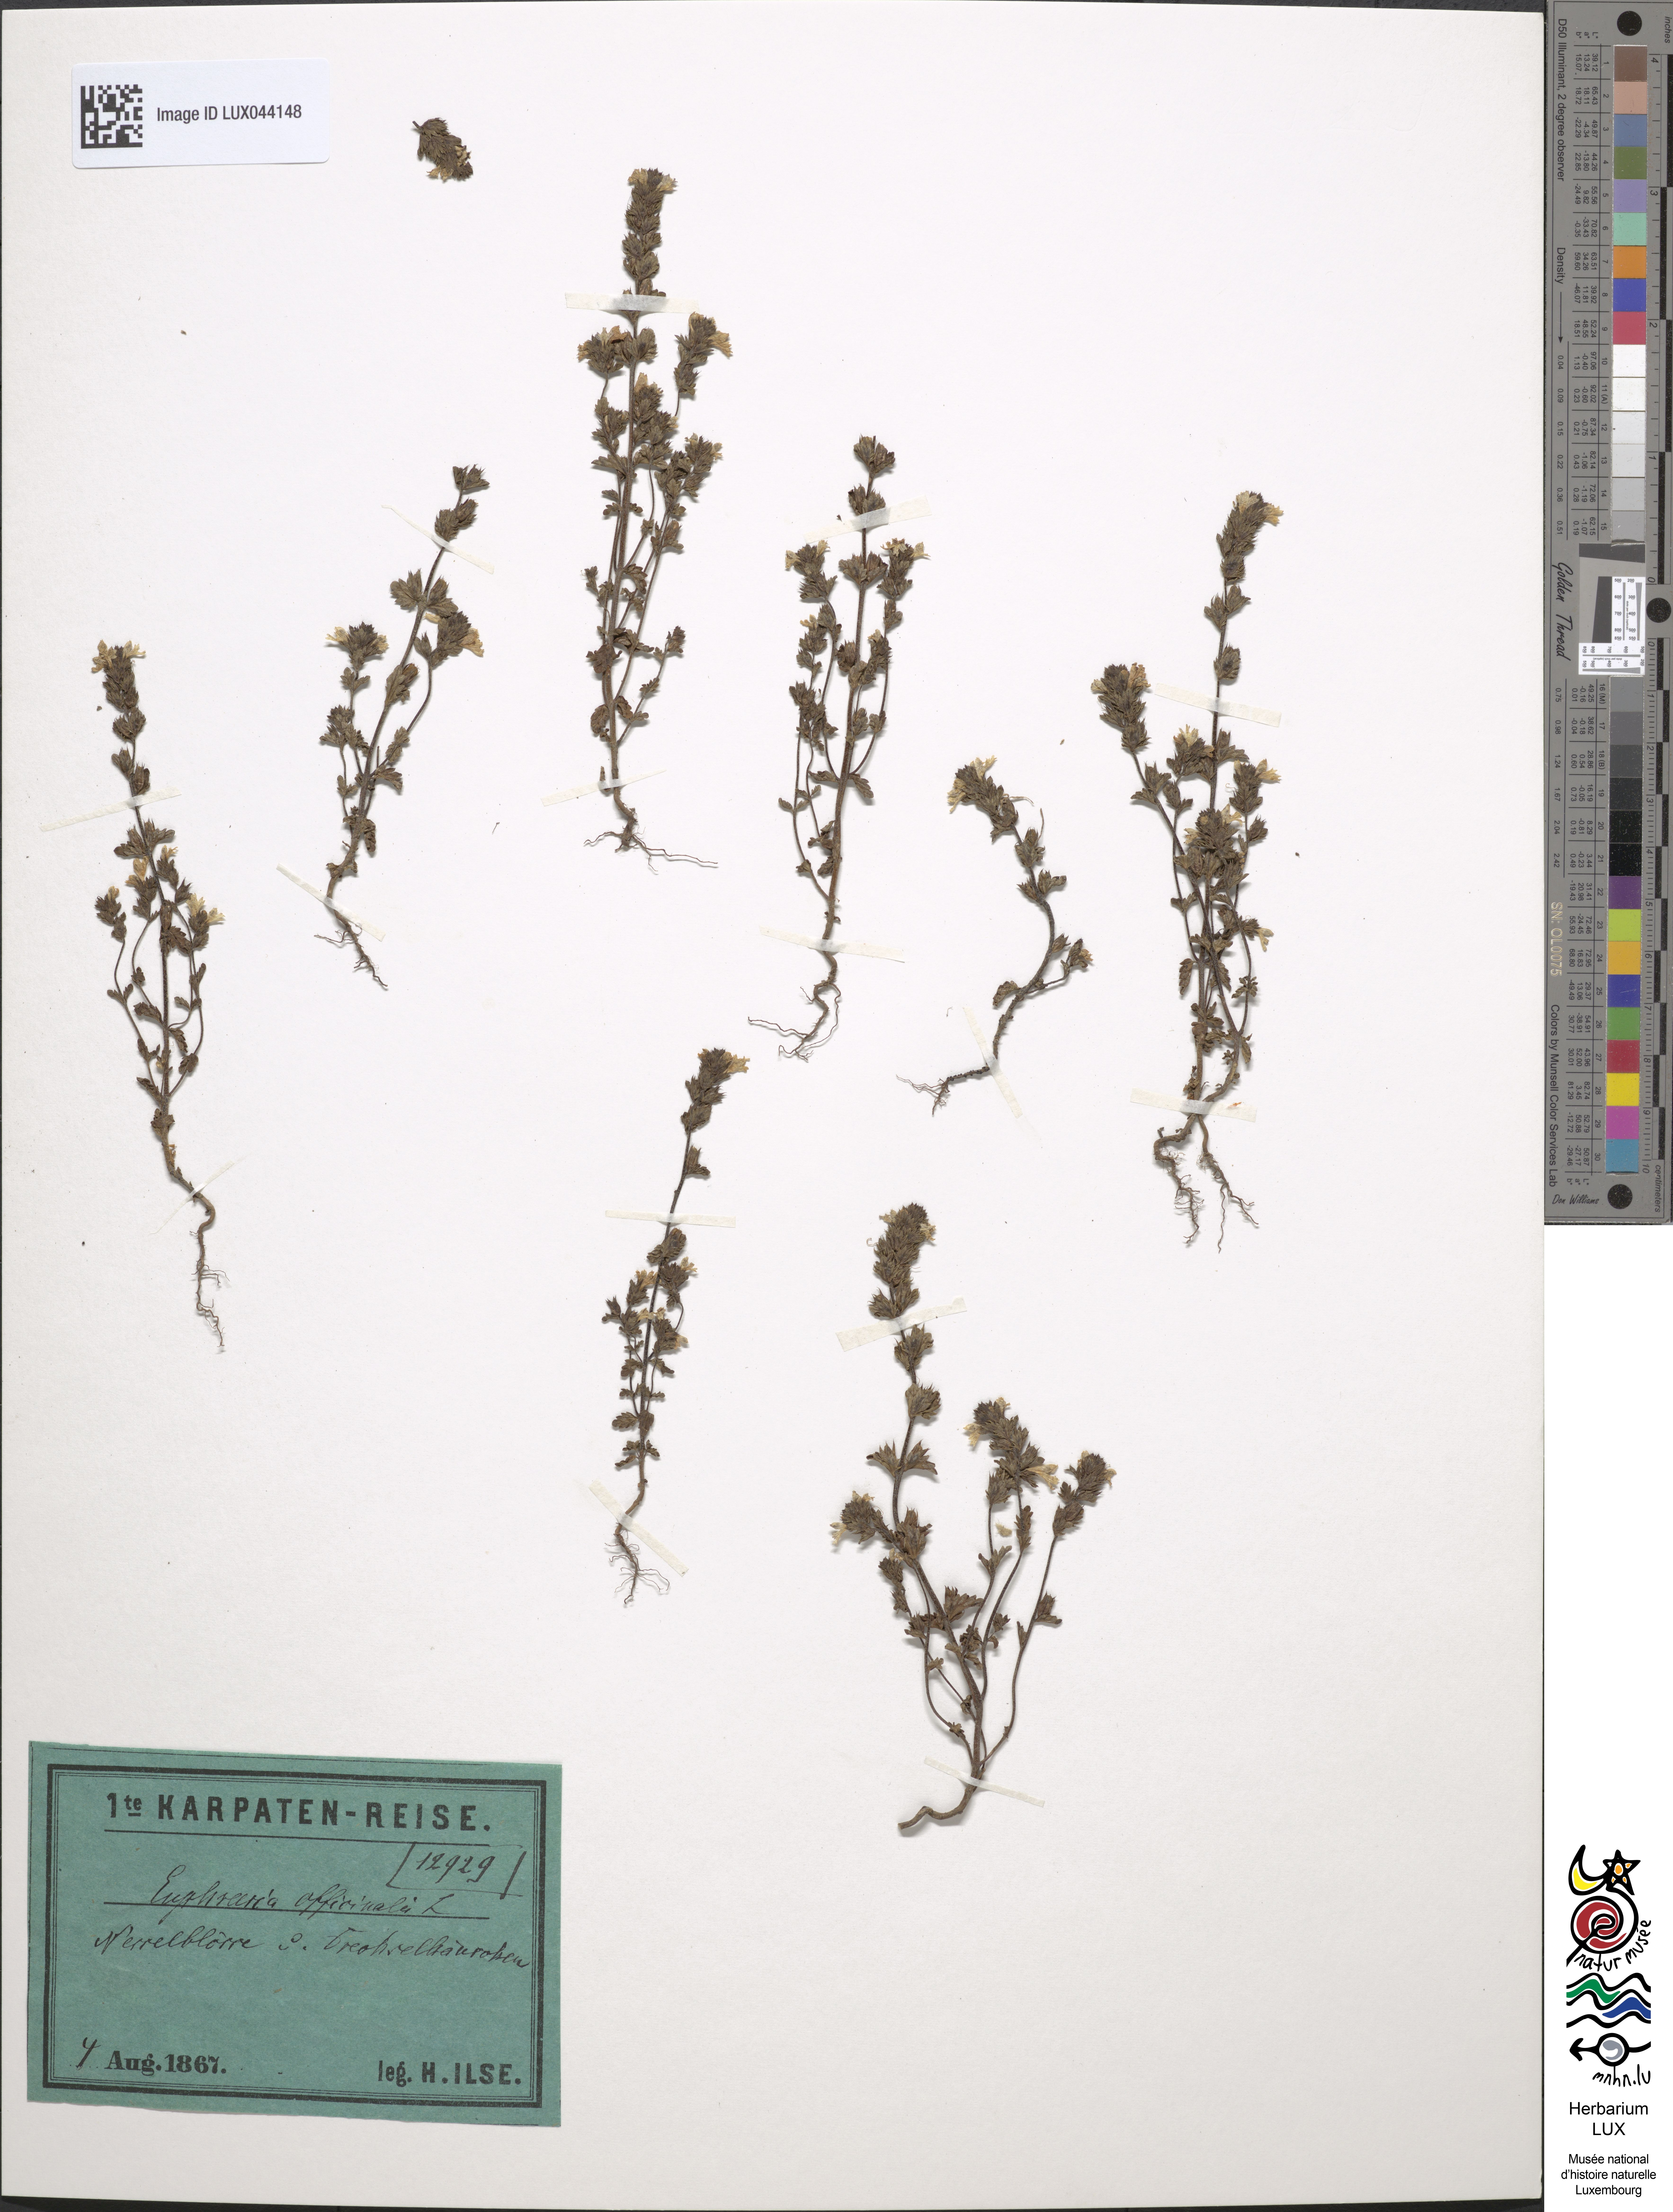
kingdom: Plantae
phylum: Tracheophyta
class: Magnoliopsida
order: Lamiales
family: Orobanchaceae
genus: Euphrasia
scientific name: Euphrasia officinalis
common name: Eyebright
